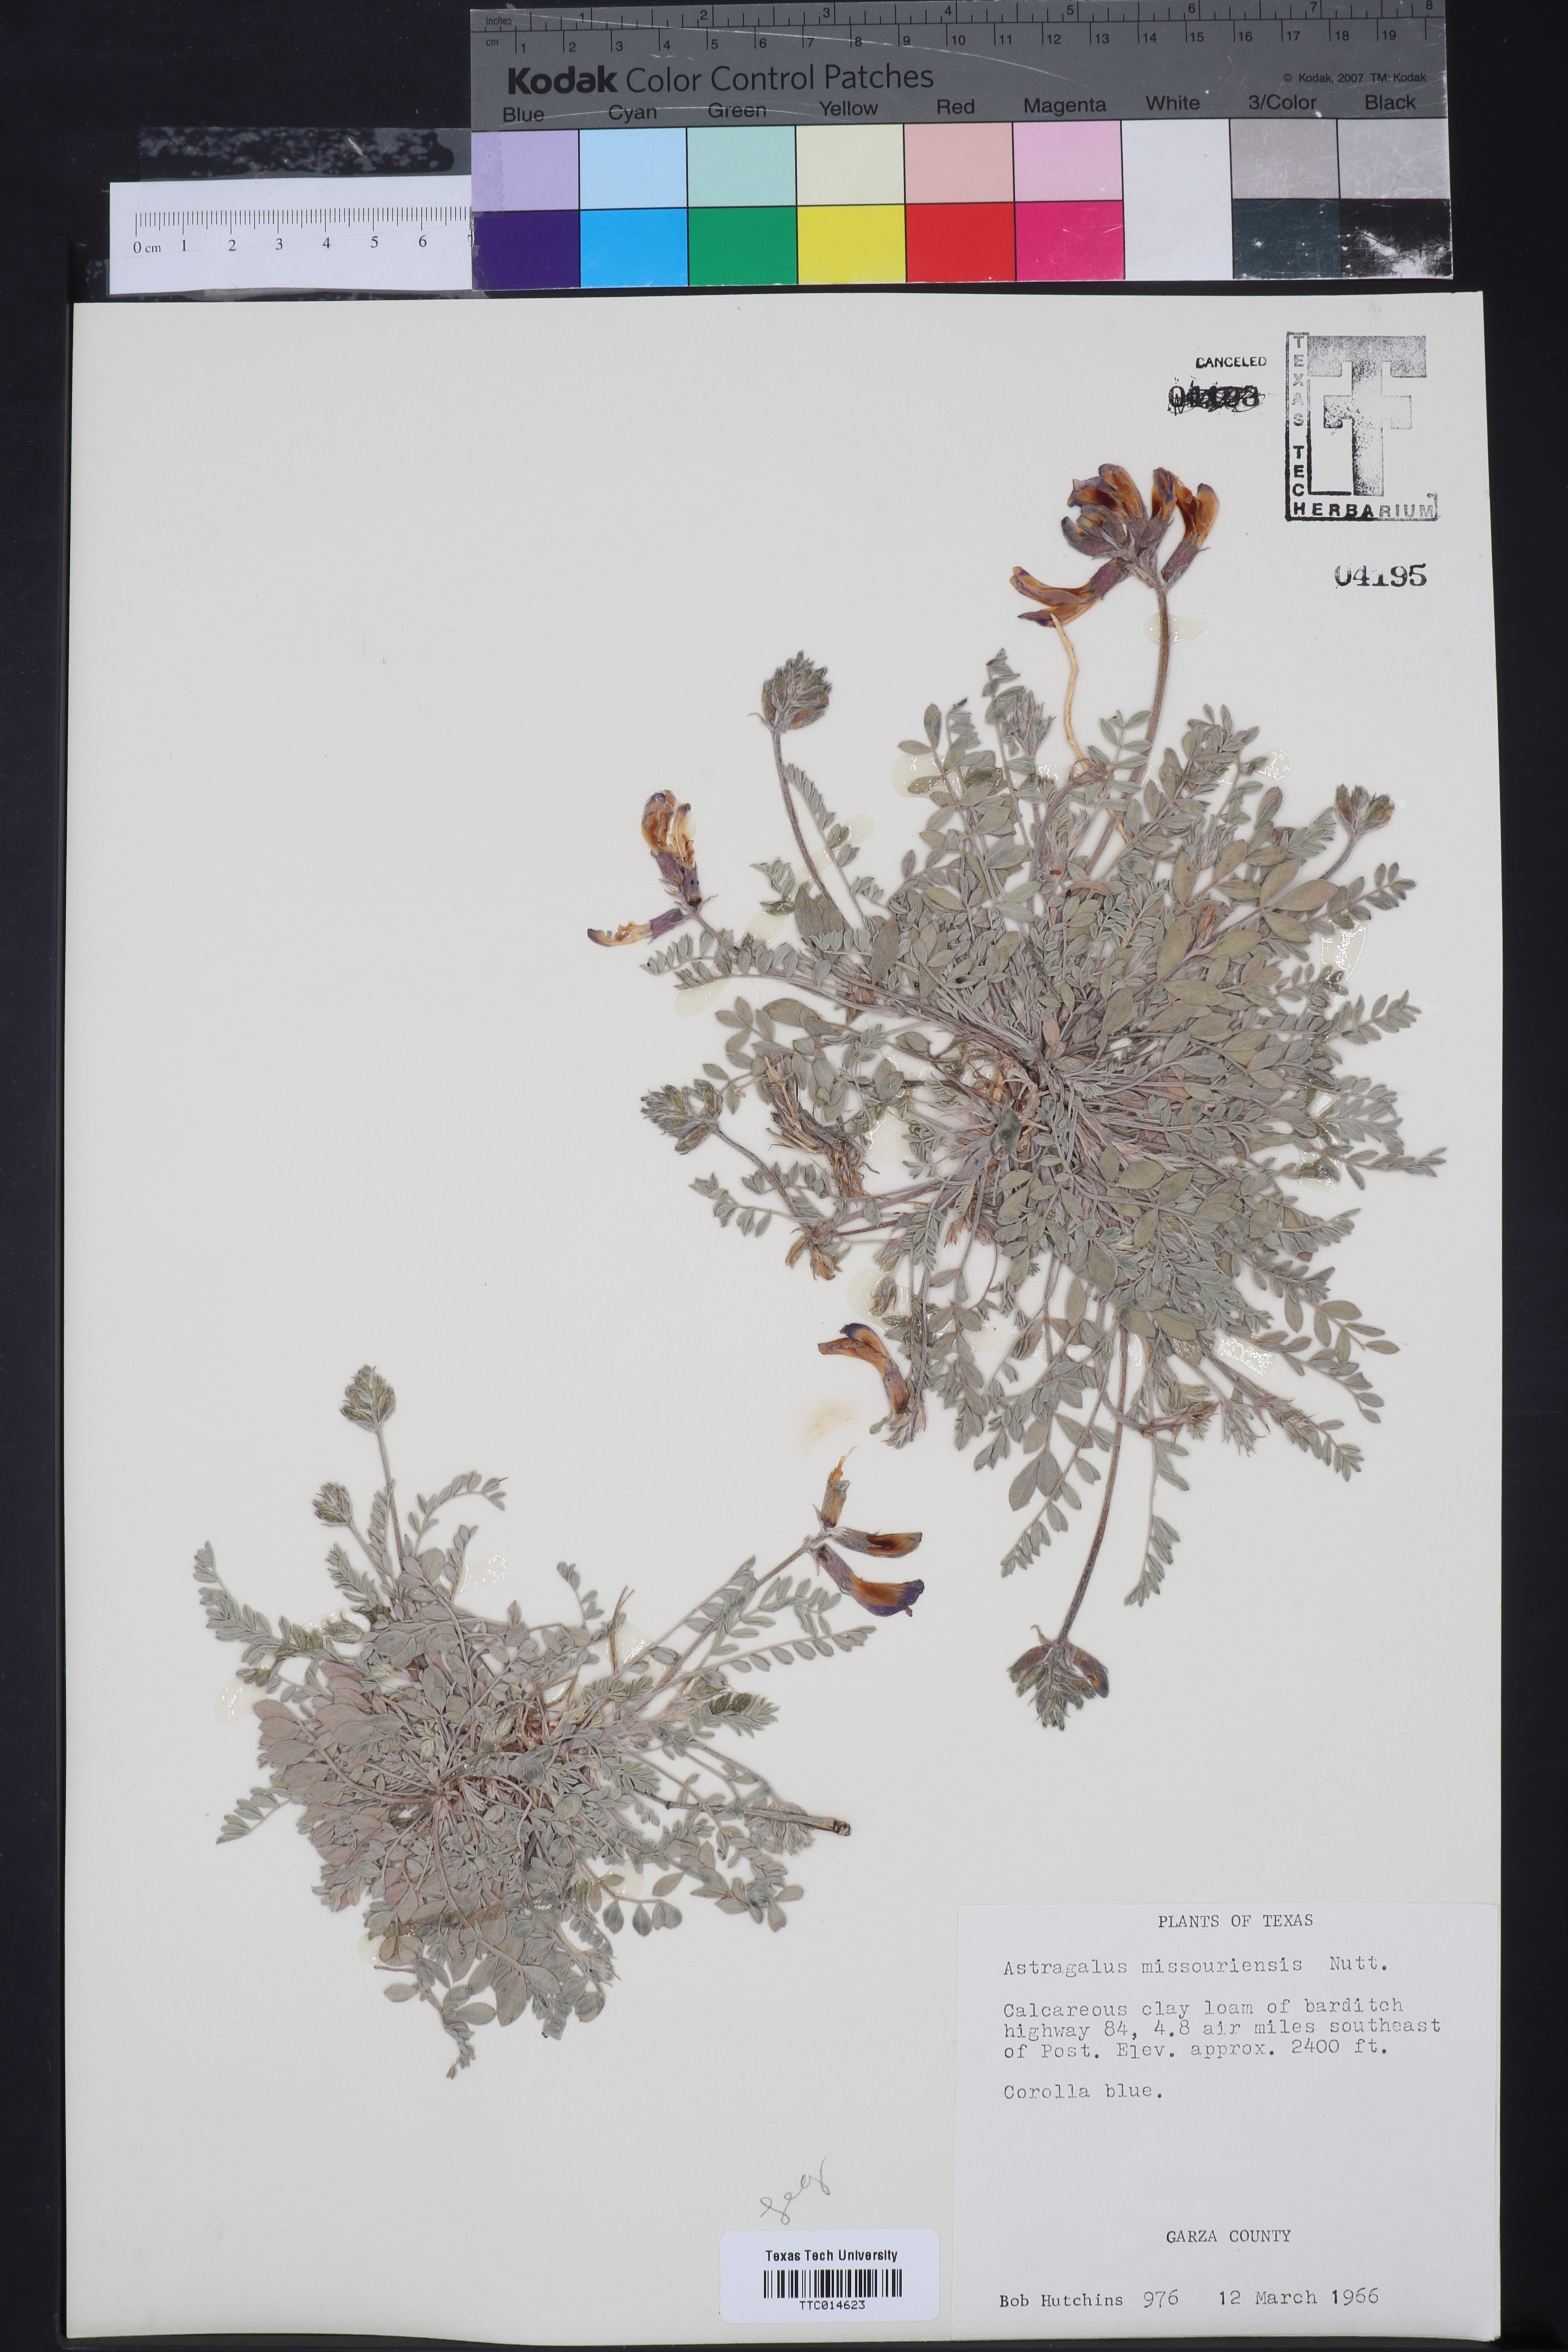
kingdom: Plantae
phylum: Tracheophyta
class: Magnoliopsida
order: Fabales
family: Fabaceae
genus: Astragalus
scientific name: Astragalus missouriensis
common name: Missouri milk-vetch
